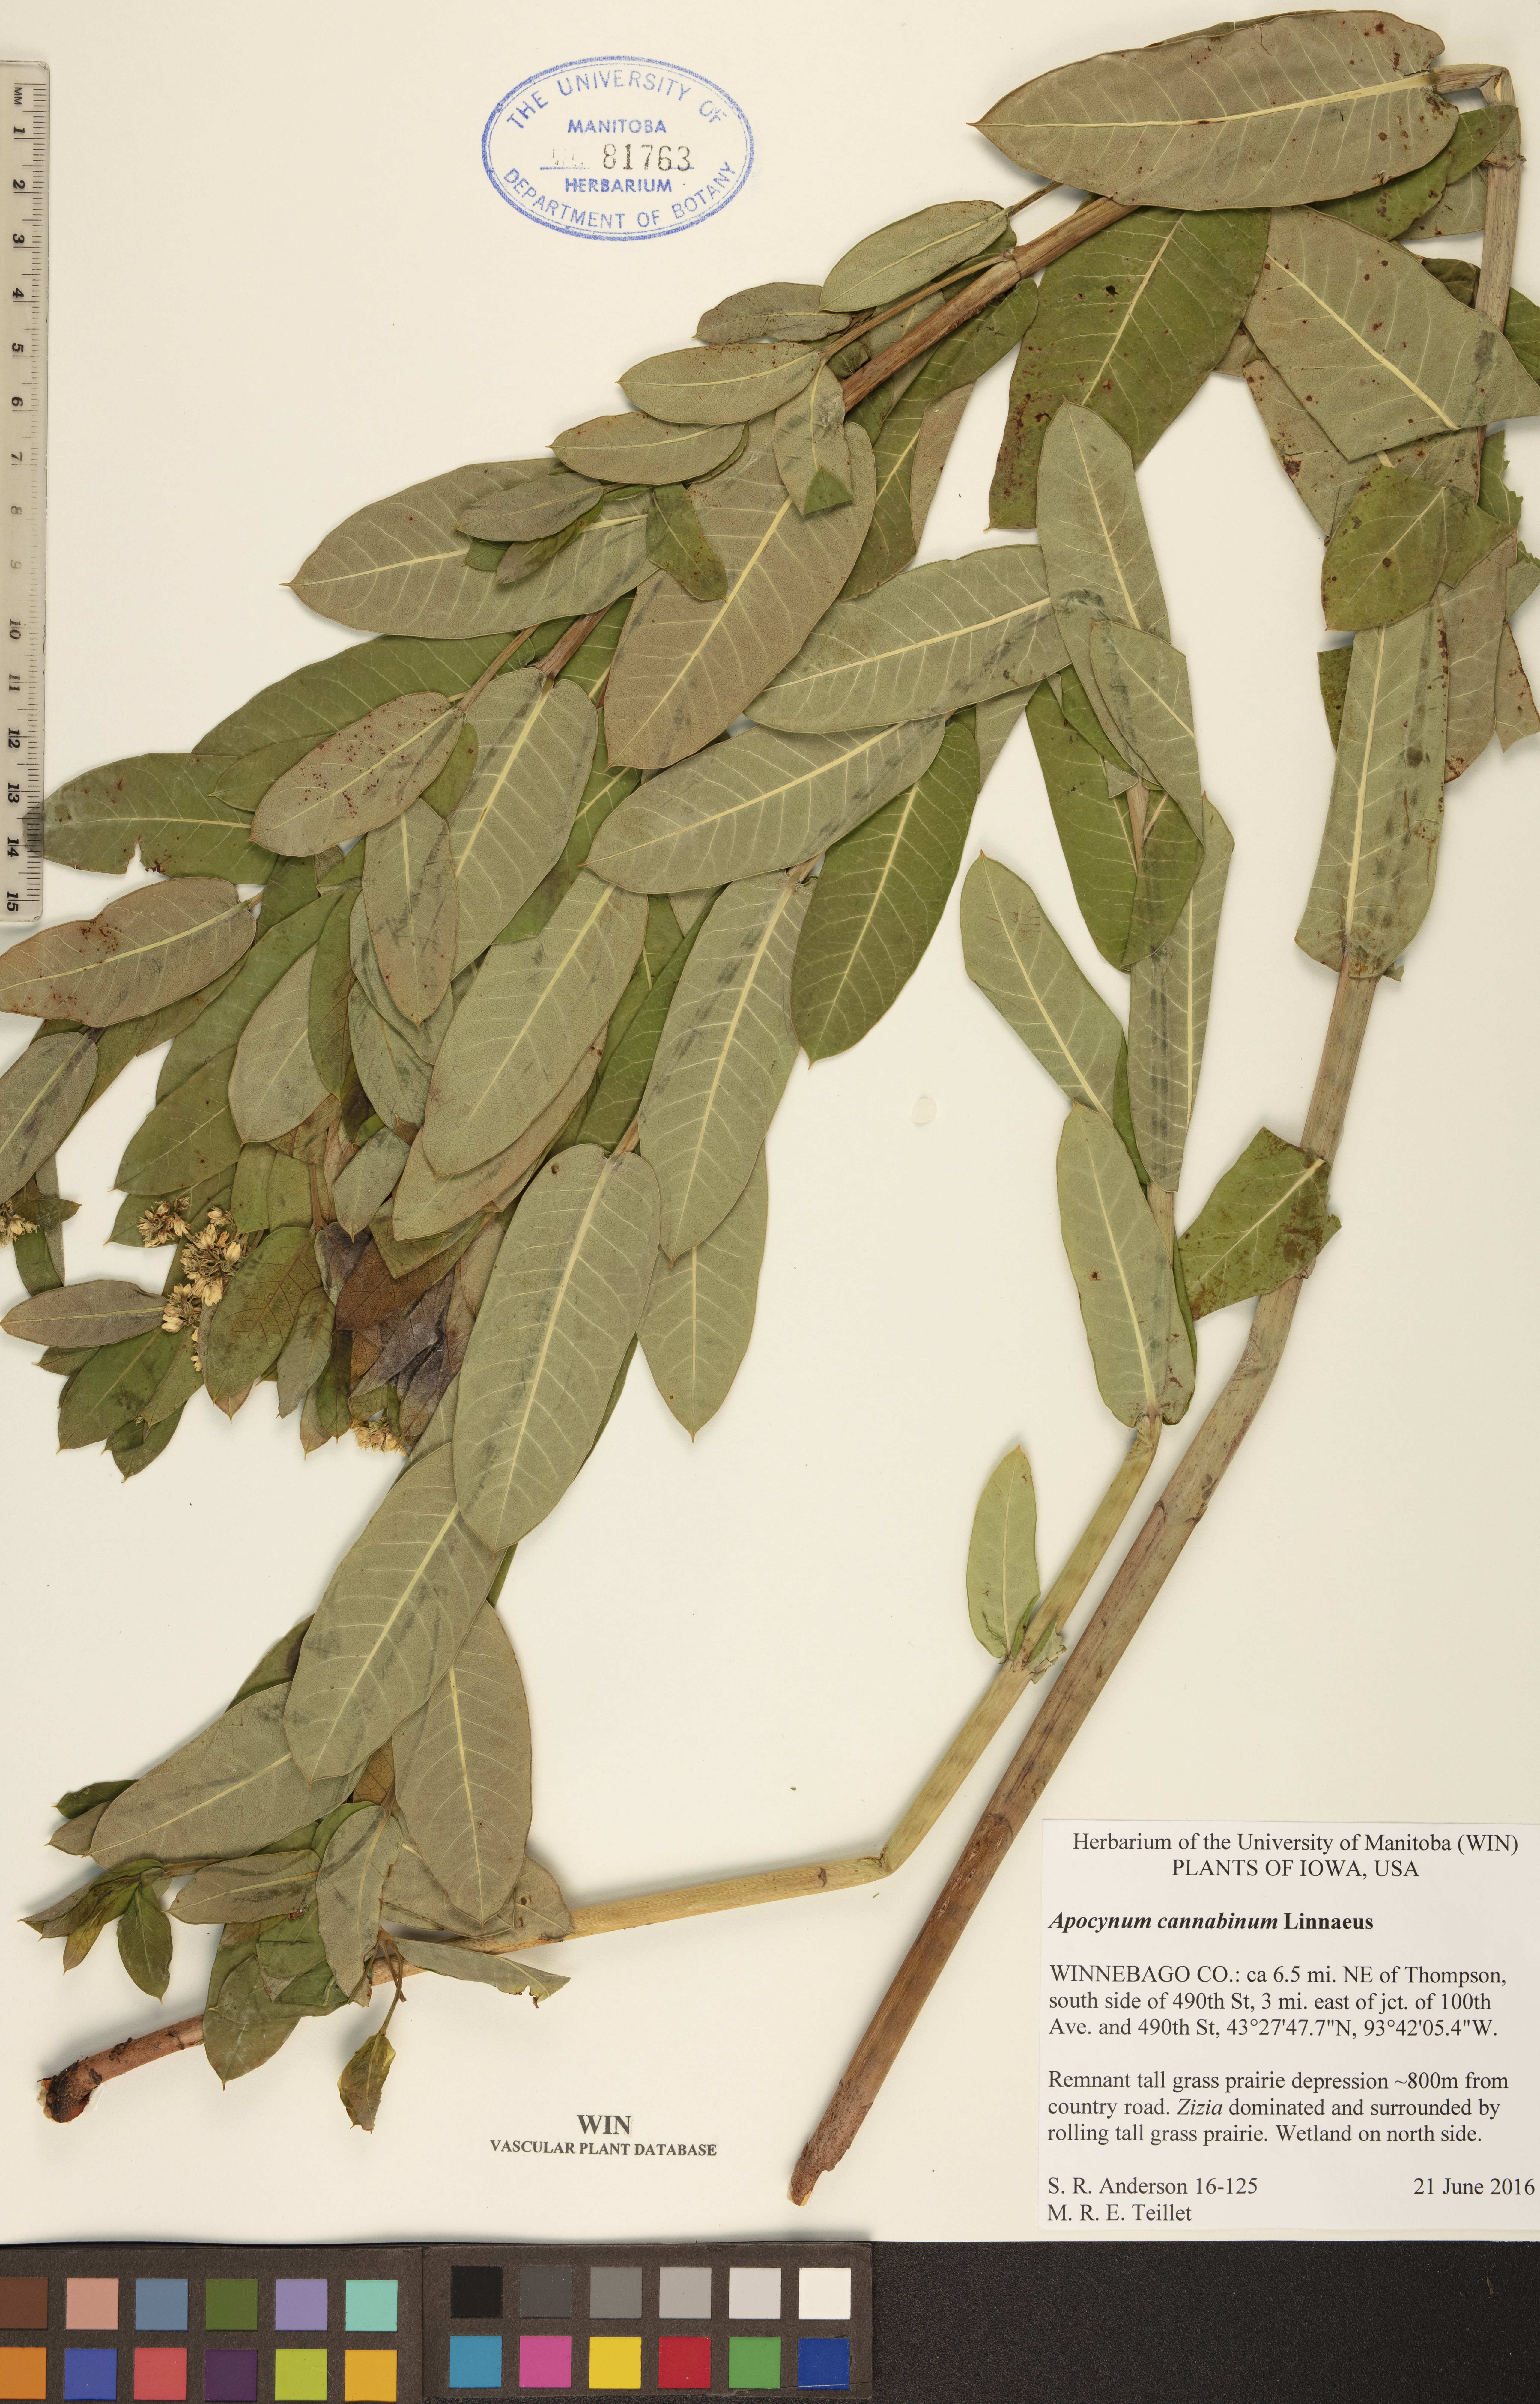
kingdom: Plantae
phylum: Tracheophyta
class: Magnoliopsida
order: Gentianales
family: Apocynaceae
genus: Apocynum
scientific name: Apocynum cannabinum
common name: Hemp dogbane
